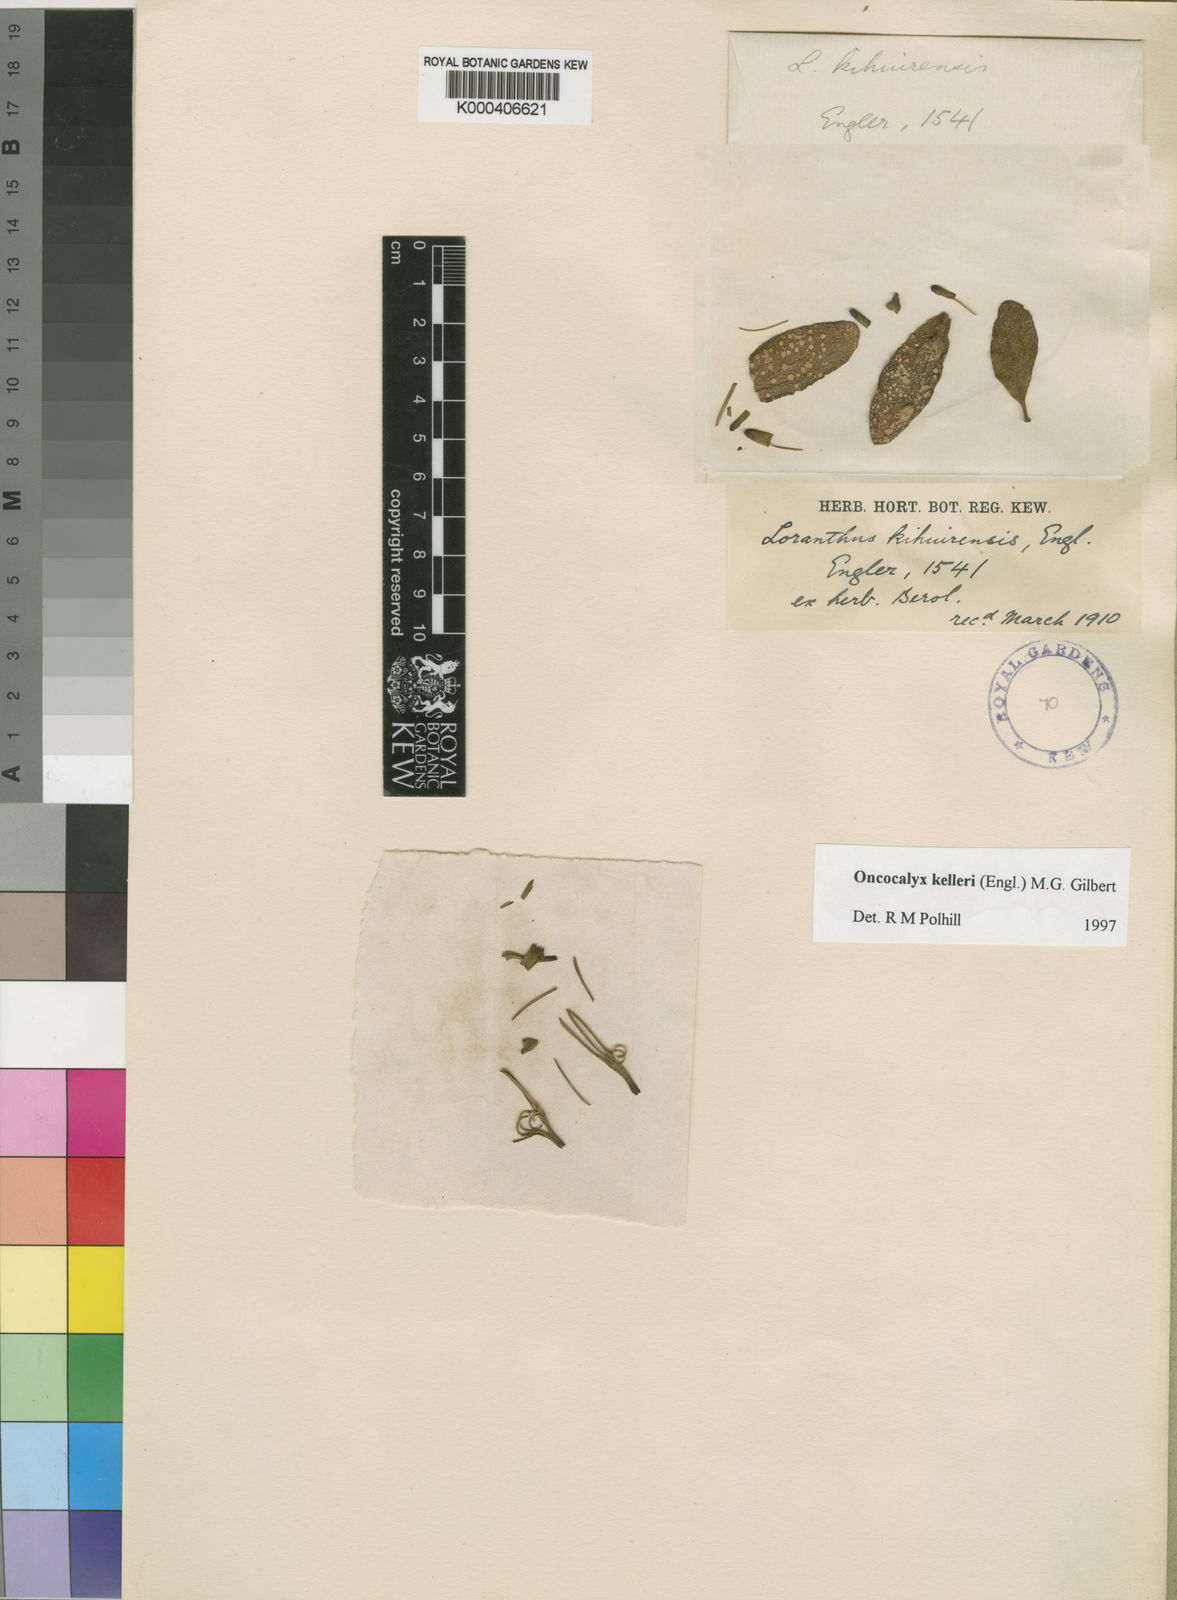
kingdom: Plantae
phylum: Tracheophyta
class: Magnoliopsida
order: Santalales
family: Loranthaceae
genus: Oncocalyx
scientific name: Oncocalyx kelleri
